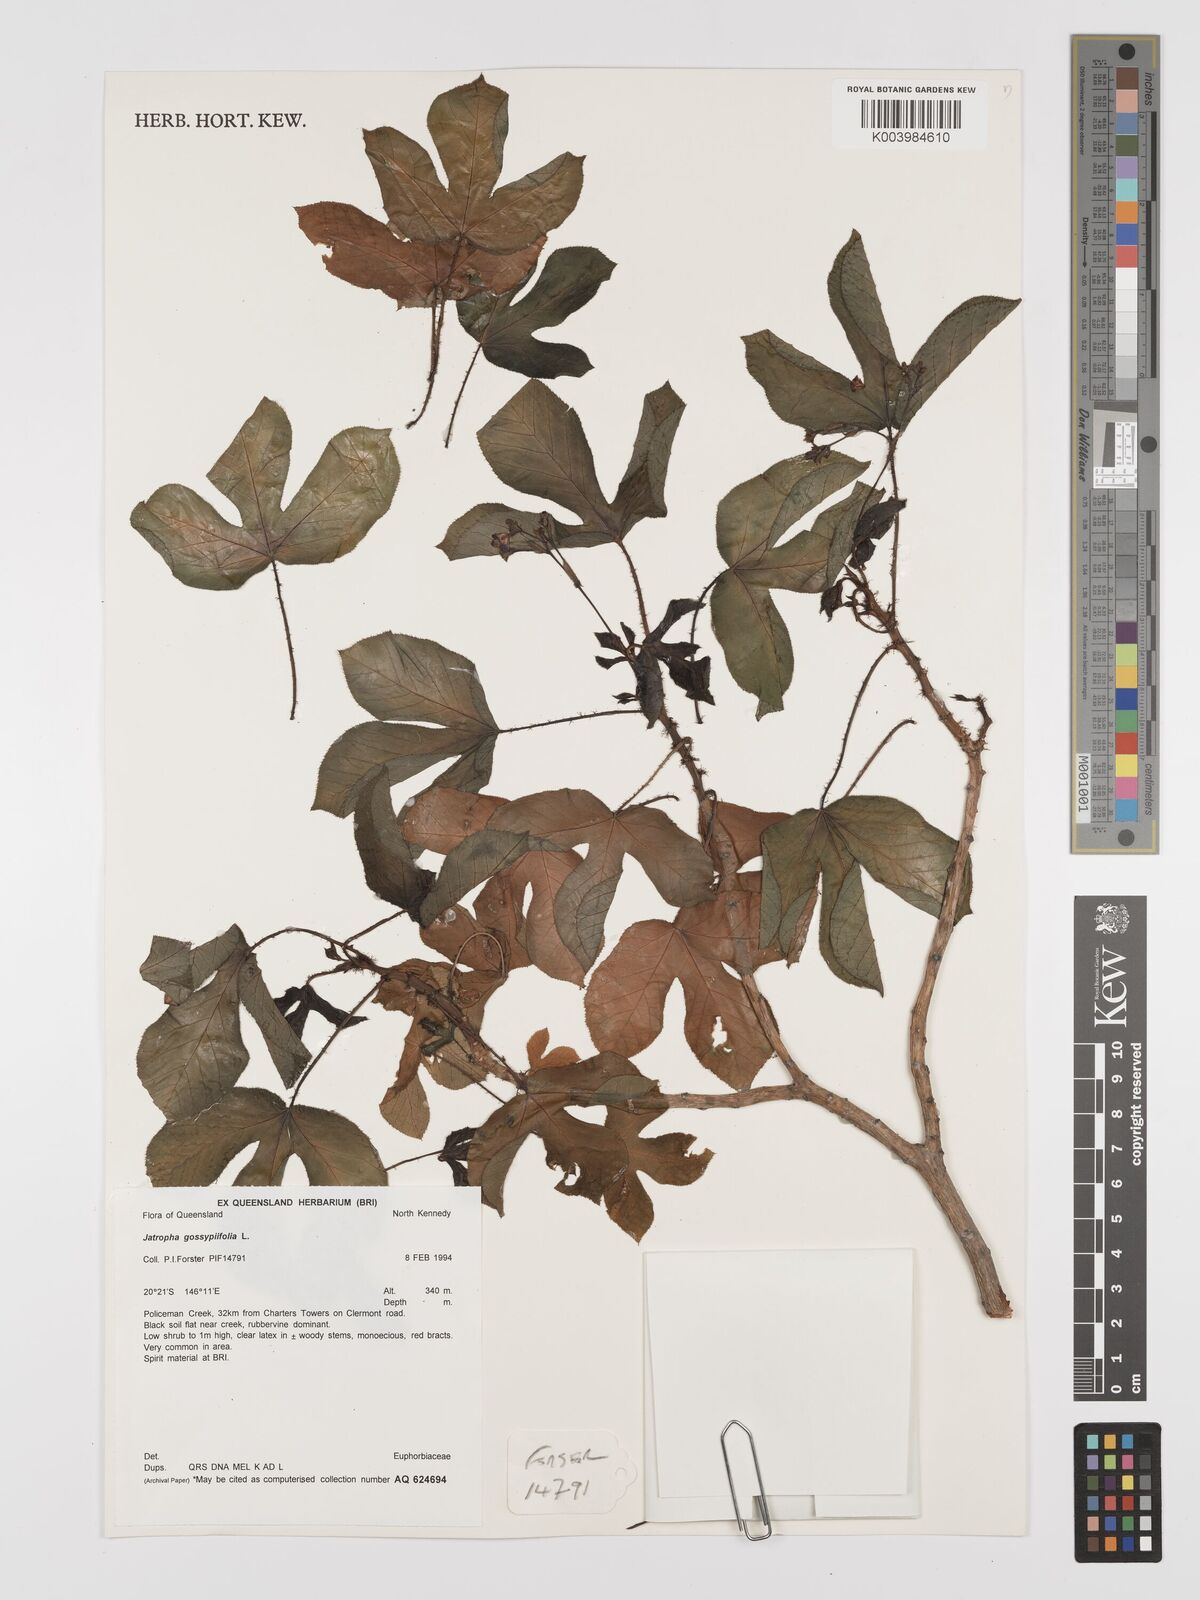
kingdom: Plantae
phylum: Tracheophyta
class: Magnoliopsida
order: Malpighiales
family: Euphorbiaceae
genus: Jatropha
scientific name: Jatropha gossypiifolia
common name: Bellyache bush
